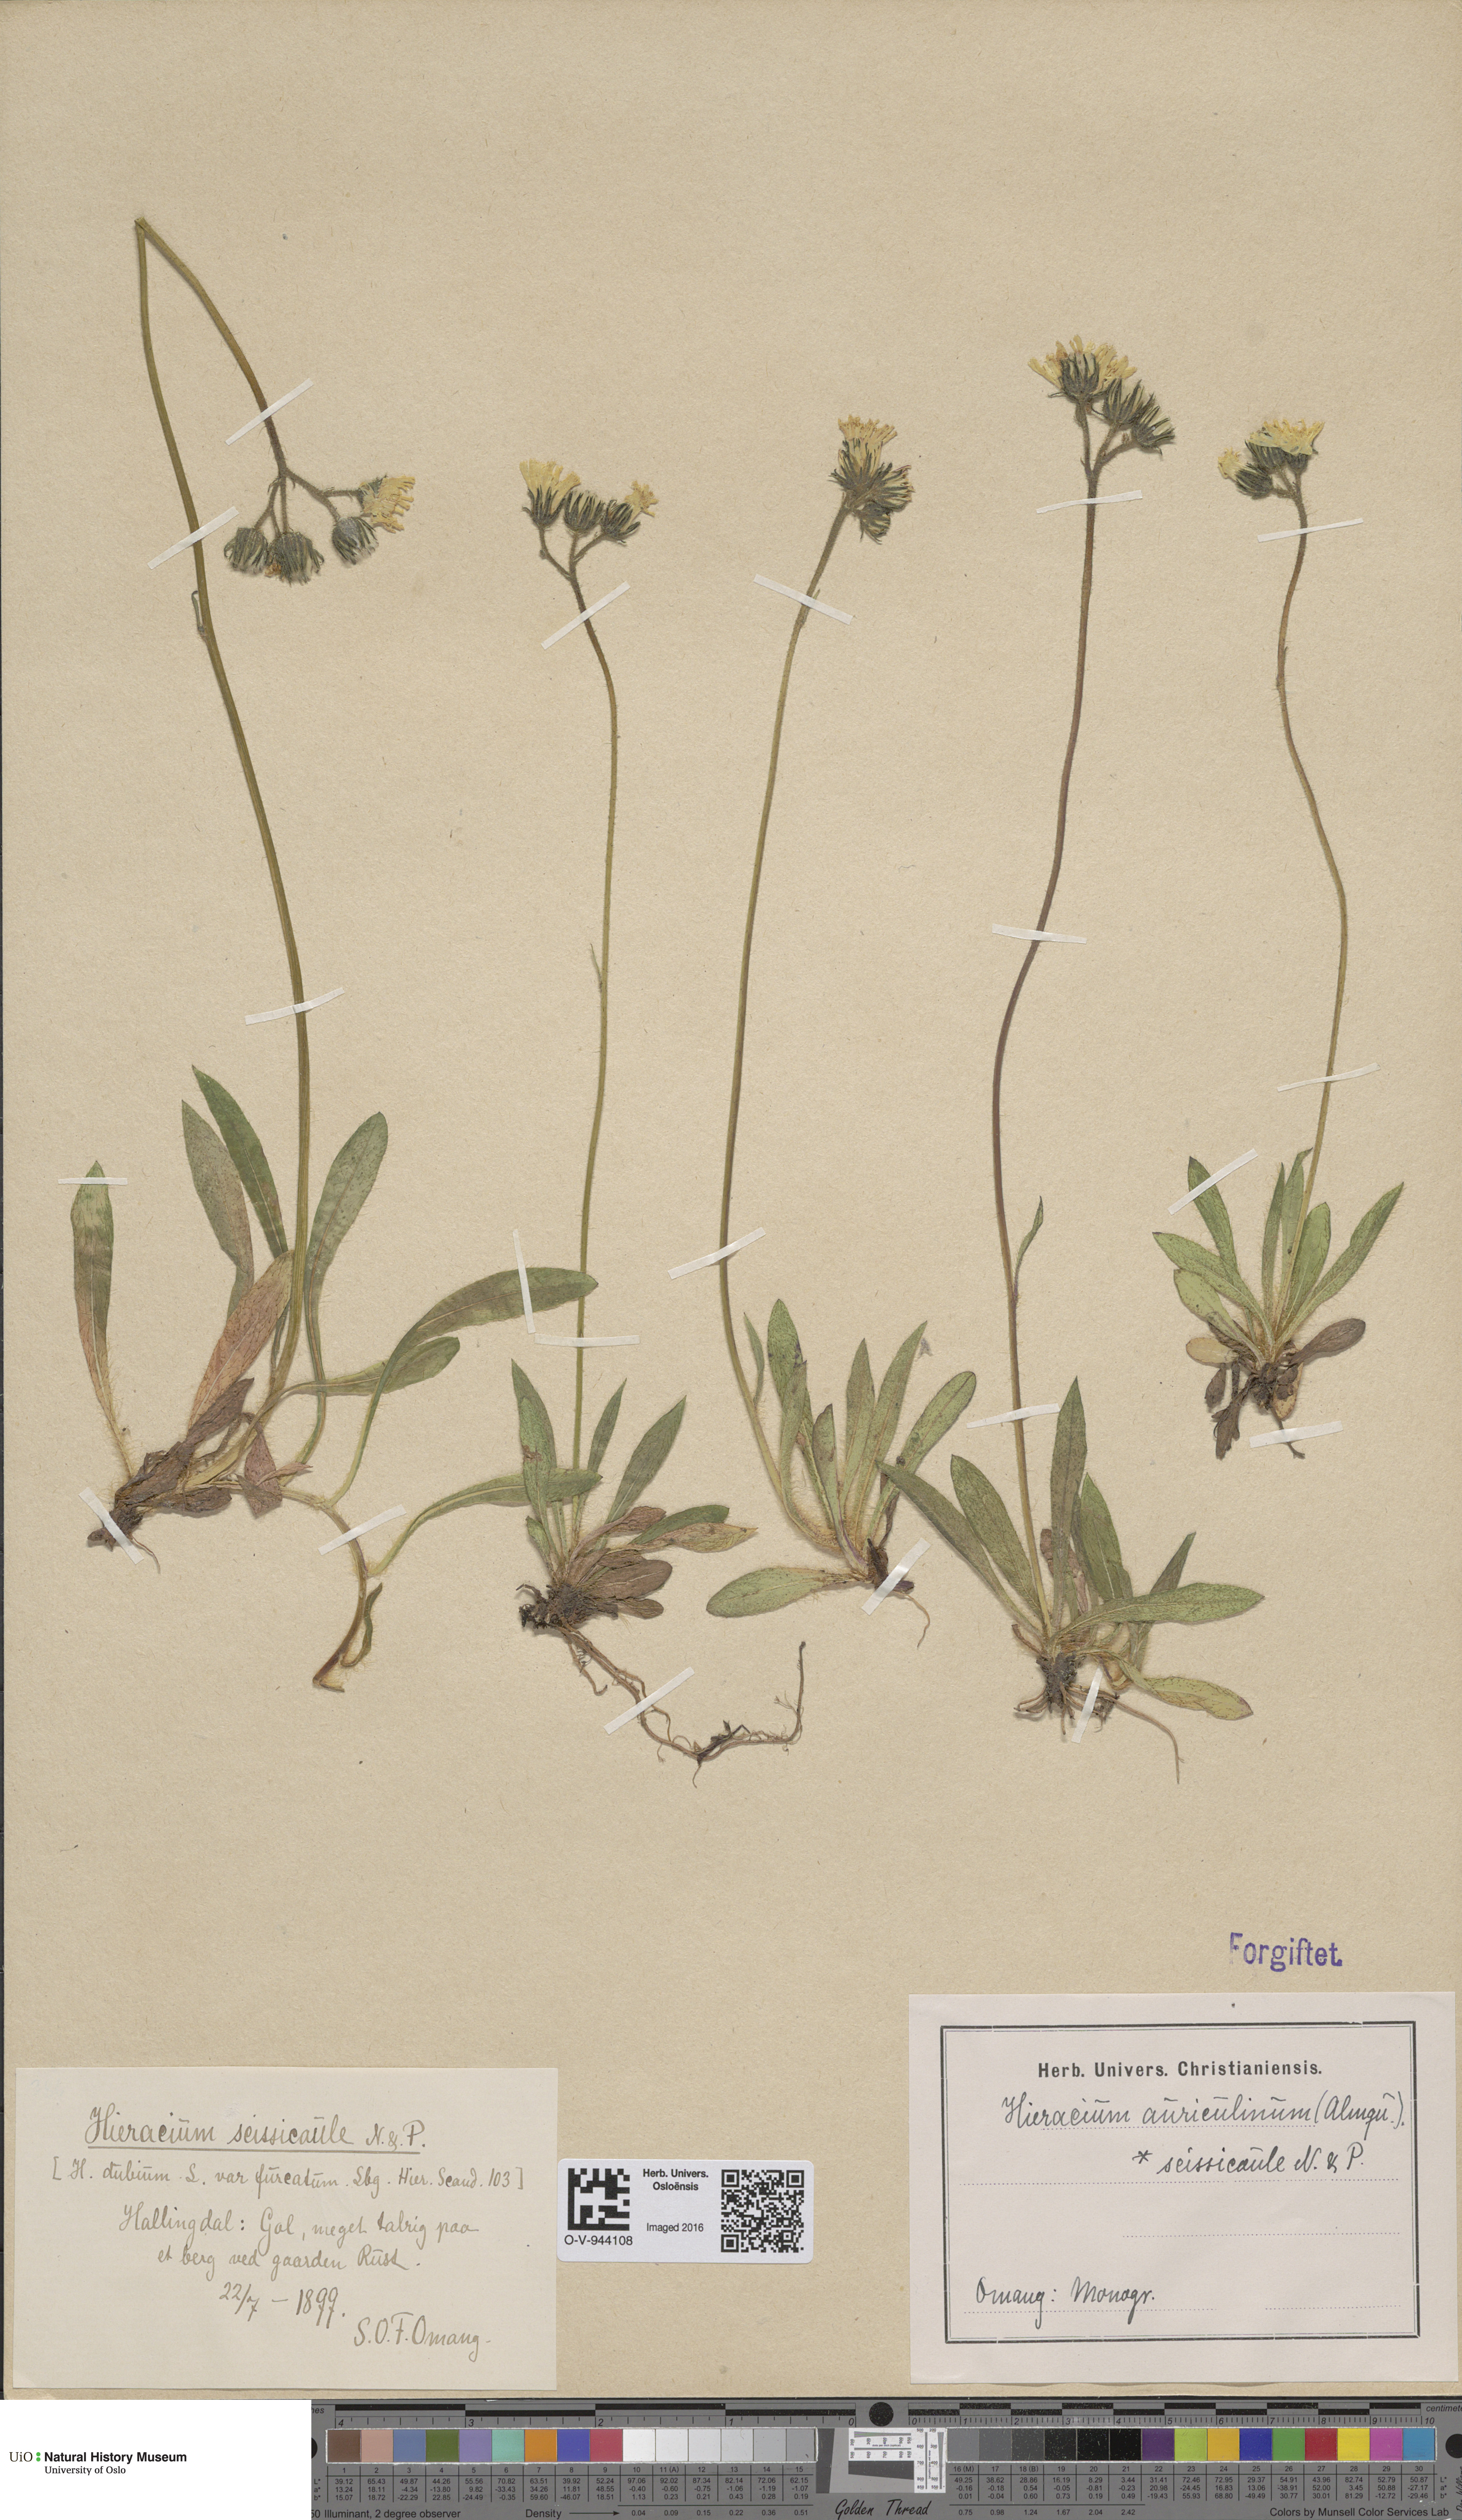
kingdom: Plantae
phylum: Tracheophyta
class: Magnoliopsida
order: Asterales
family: Asteraceae
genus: Pilosella
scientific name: Pilosella dubia
